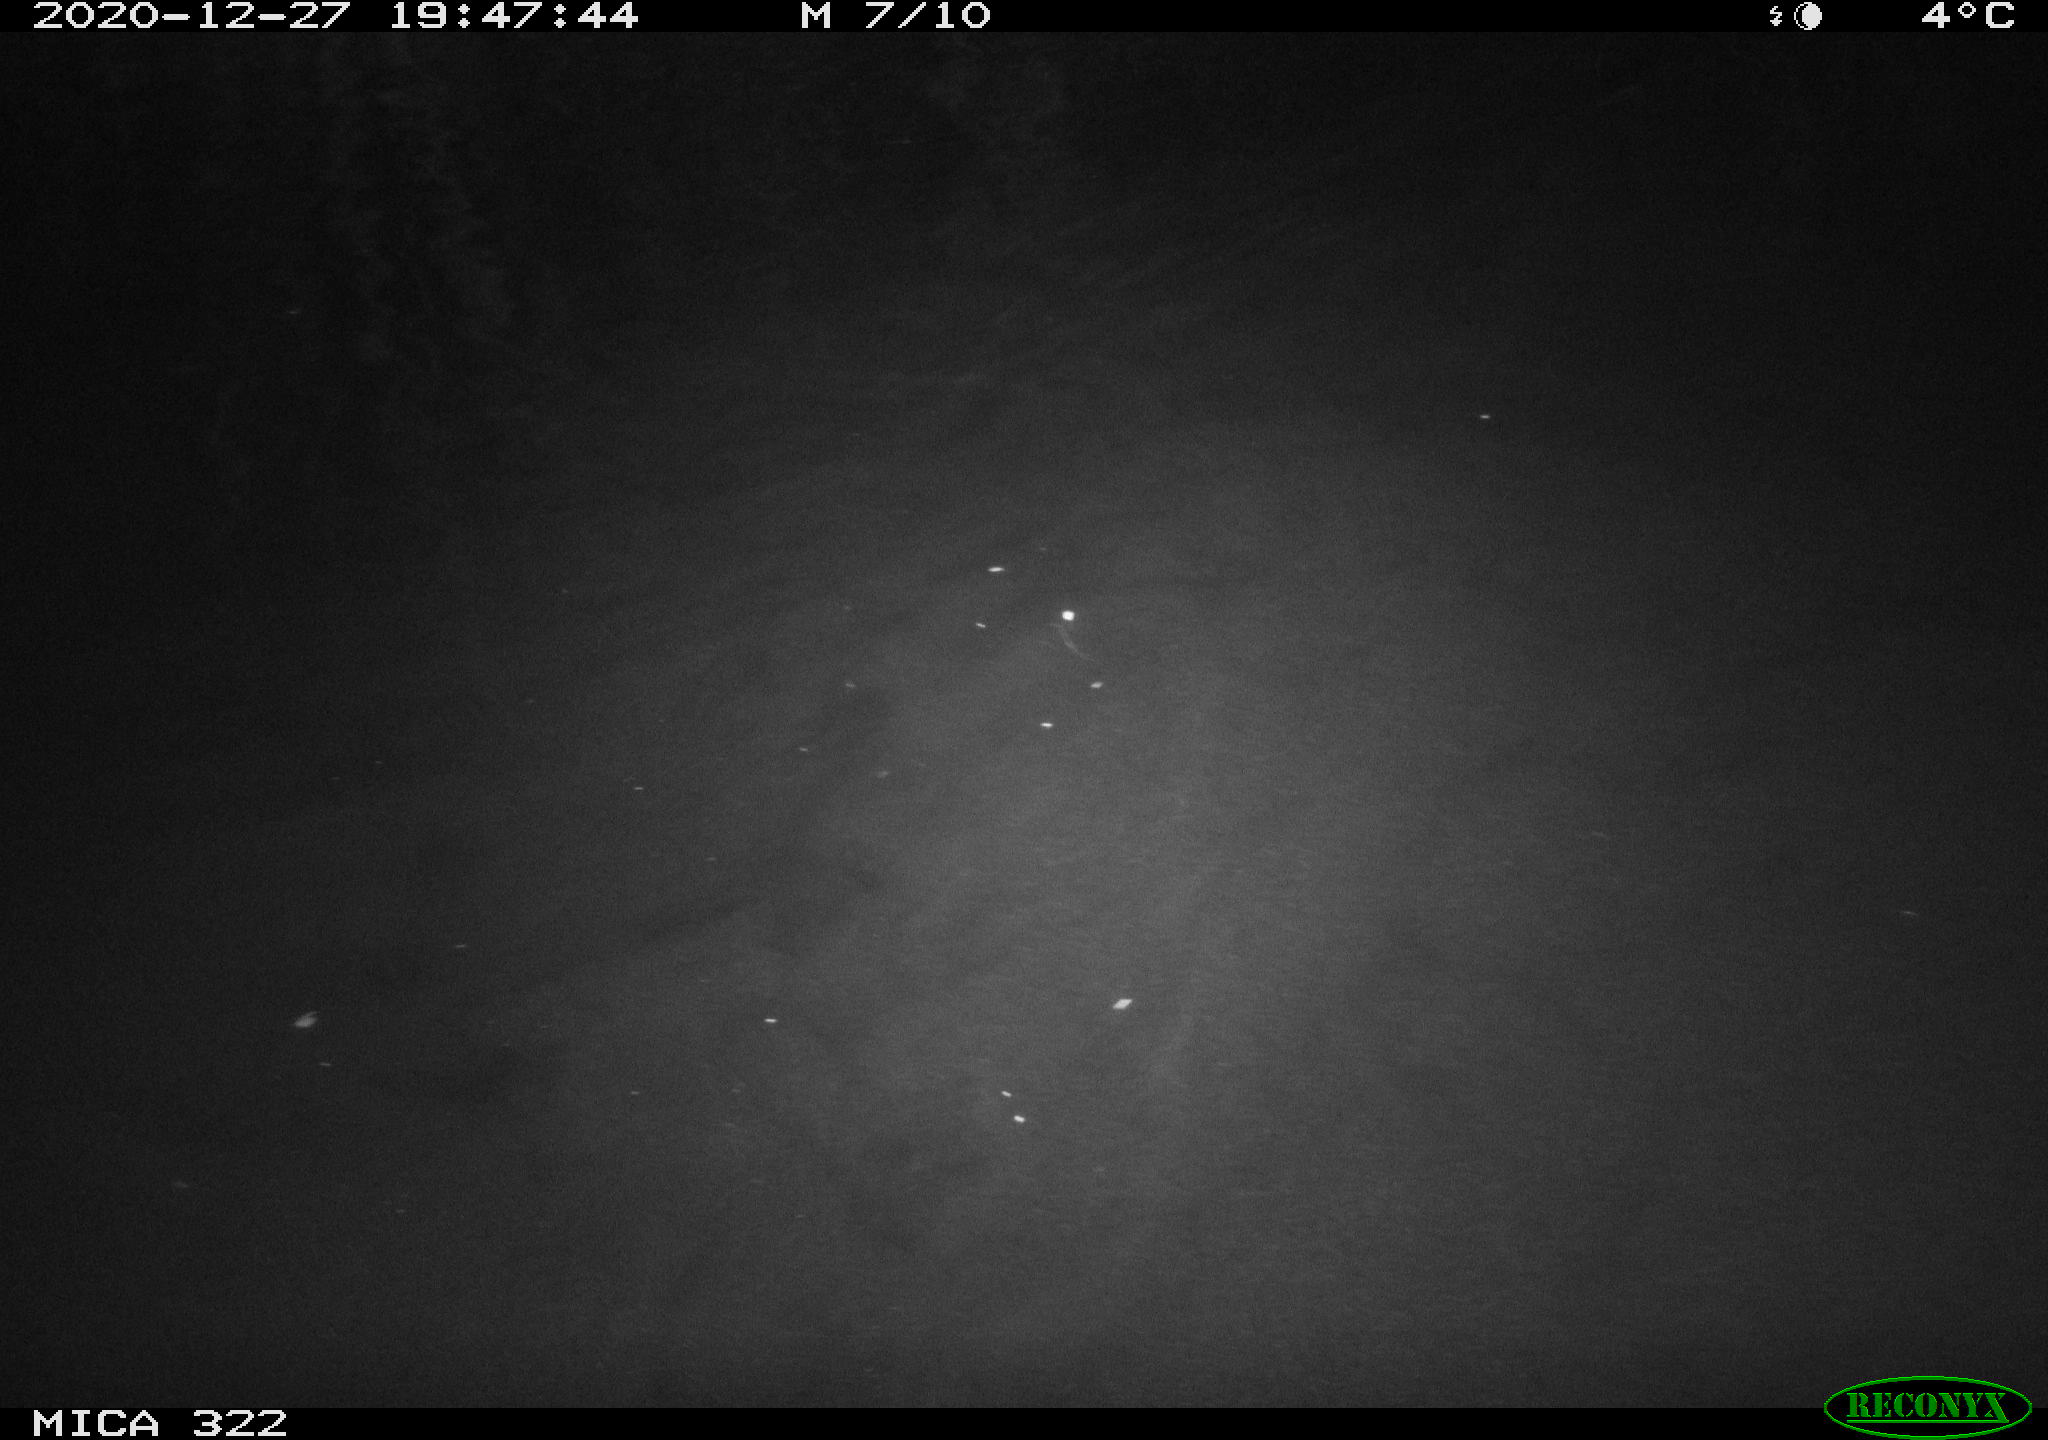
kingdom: Animalia
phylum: Chordata
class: Mammalia
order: Rodentia
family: Muridae
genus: Rattus
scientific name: Rattus norvegicus
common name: Brown rat
